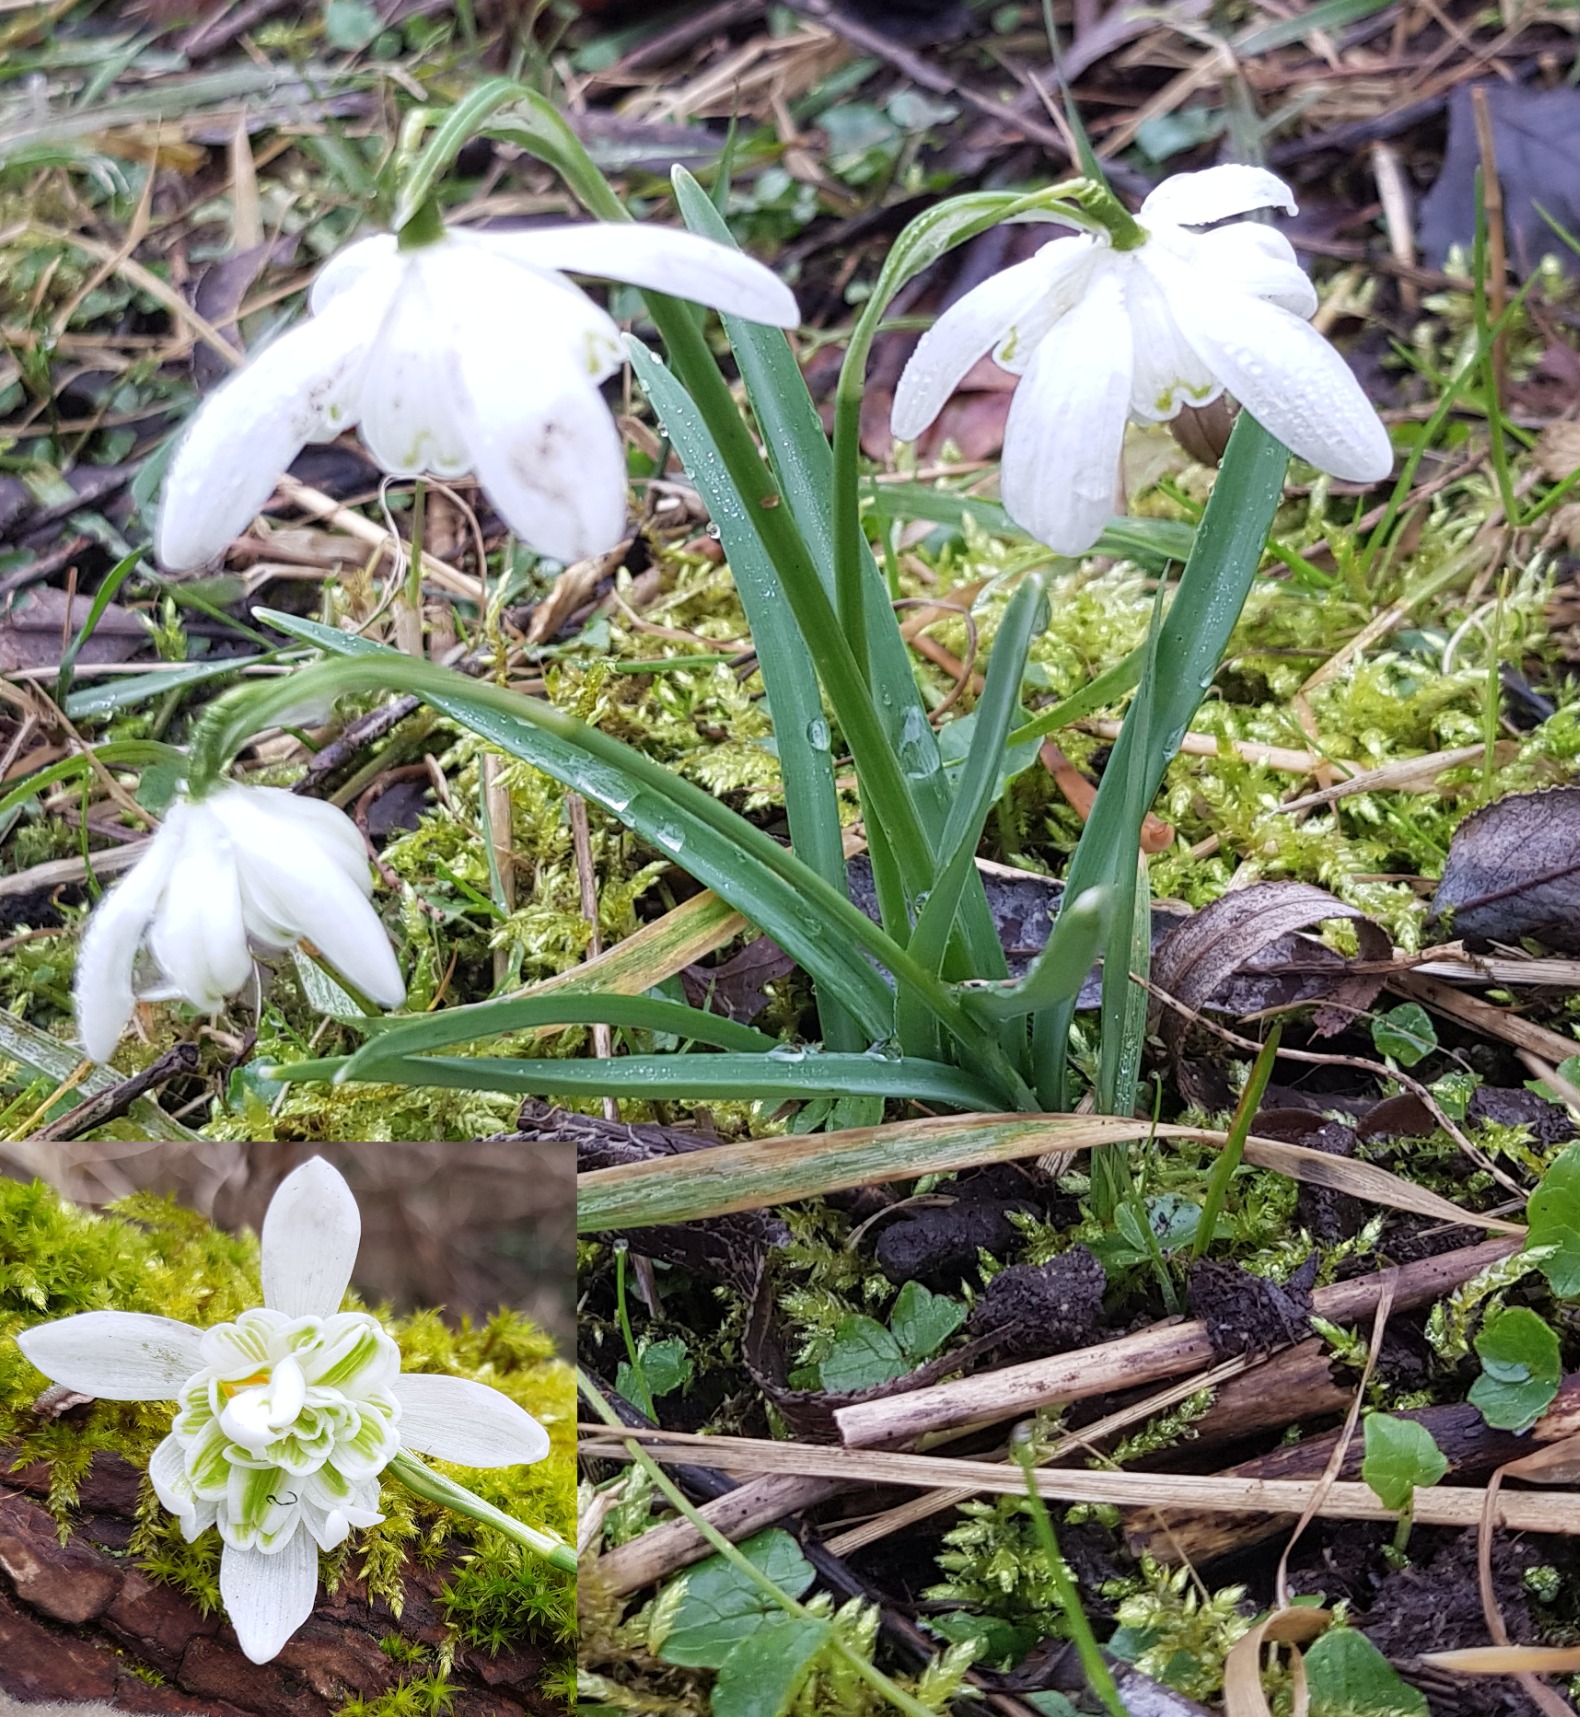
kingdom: Plantae
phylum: Tracheophyta
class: Liliopsida
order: Asparagales
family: Amaryllidaceae
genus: Galanthus
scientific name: Galanthus nivalis
